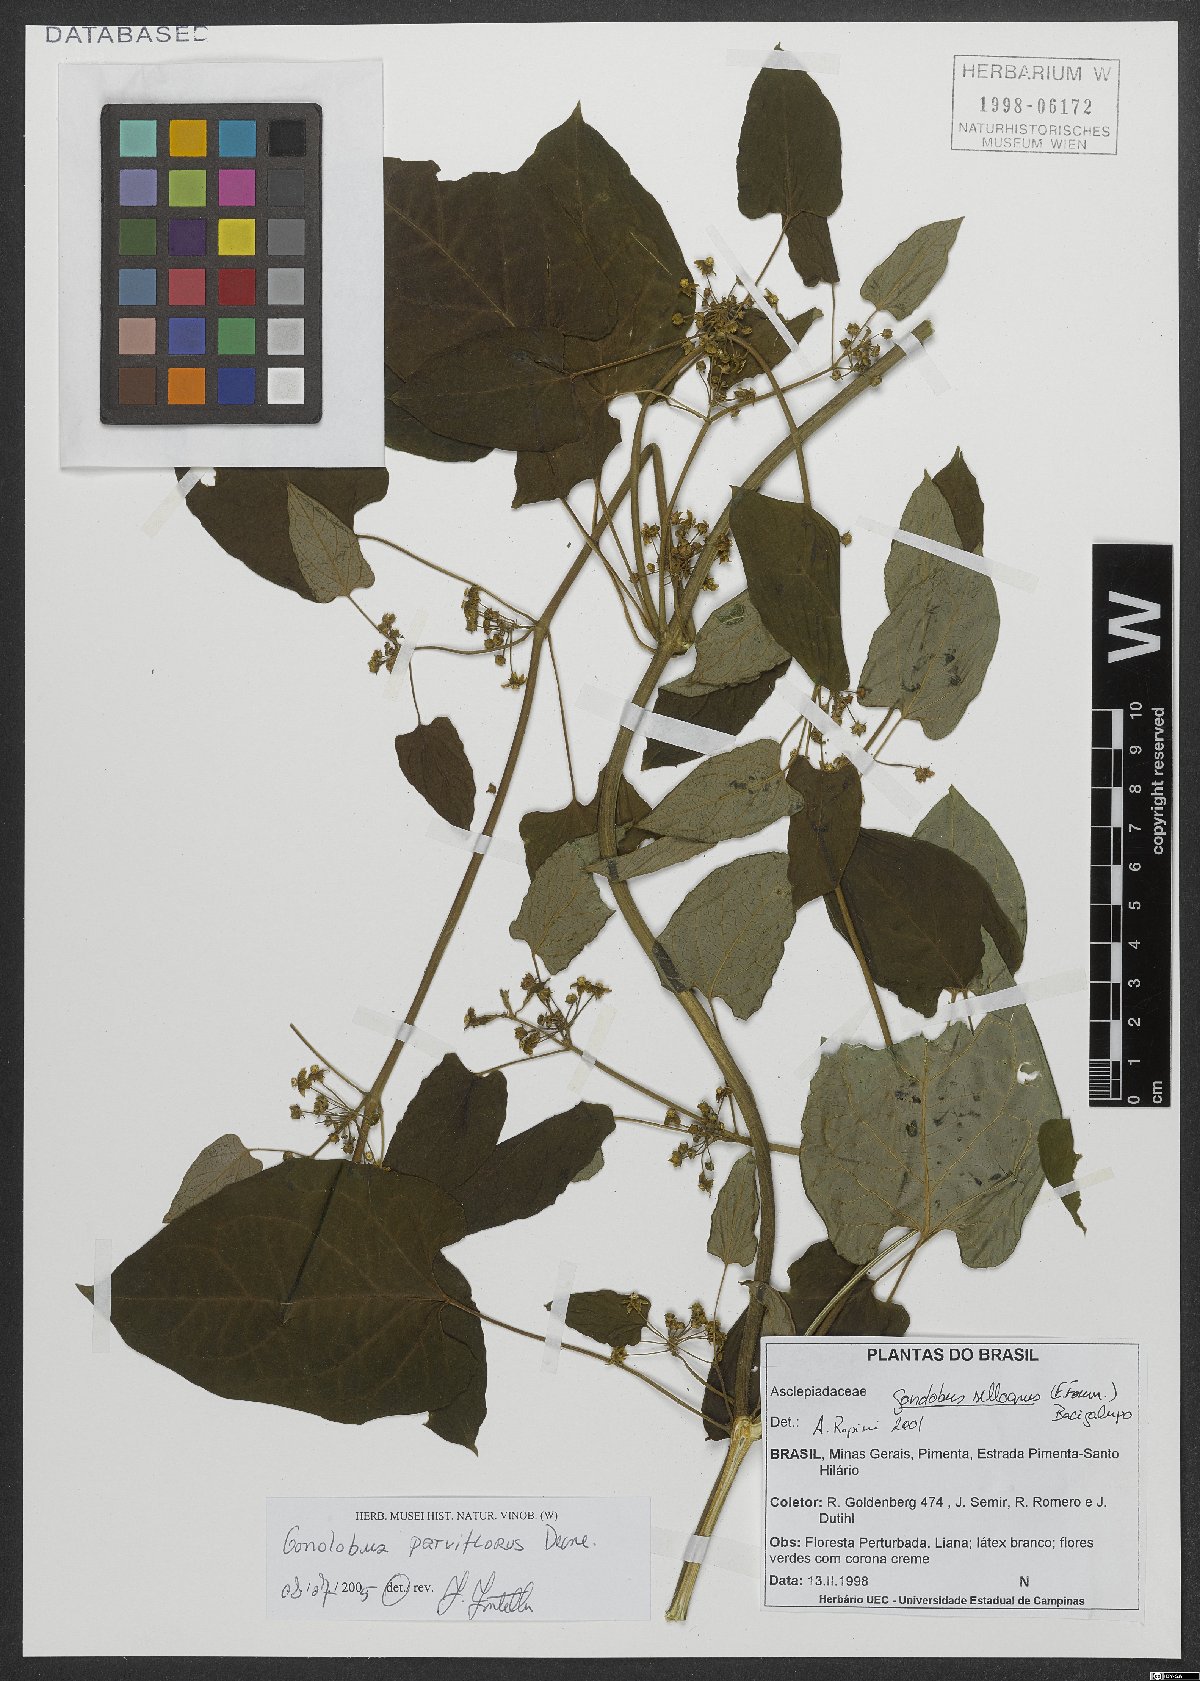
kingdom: Plantae
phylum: Tracheophyta
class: Magnoliopsida
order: Gentianales
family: Apocynaceae
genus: Gonolobus
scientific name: Gonolobus parviflorus
